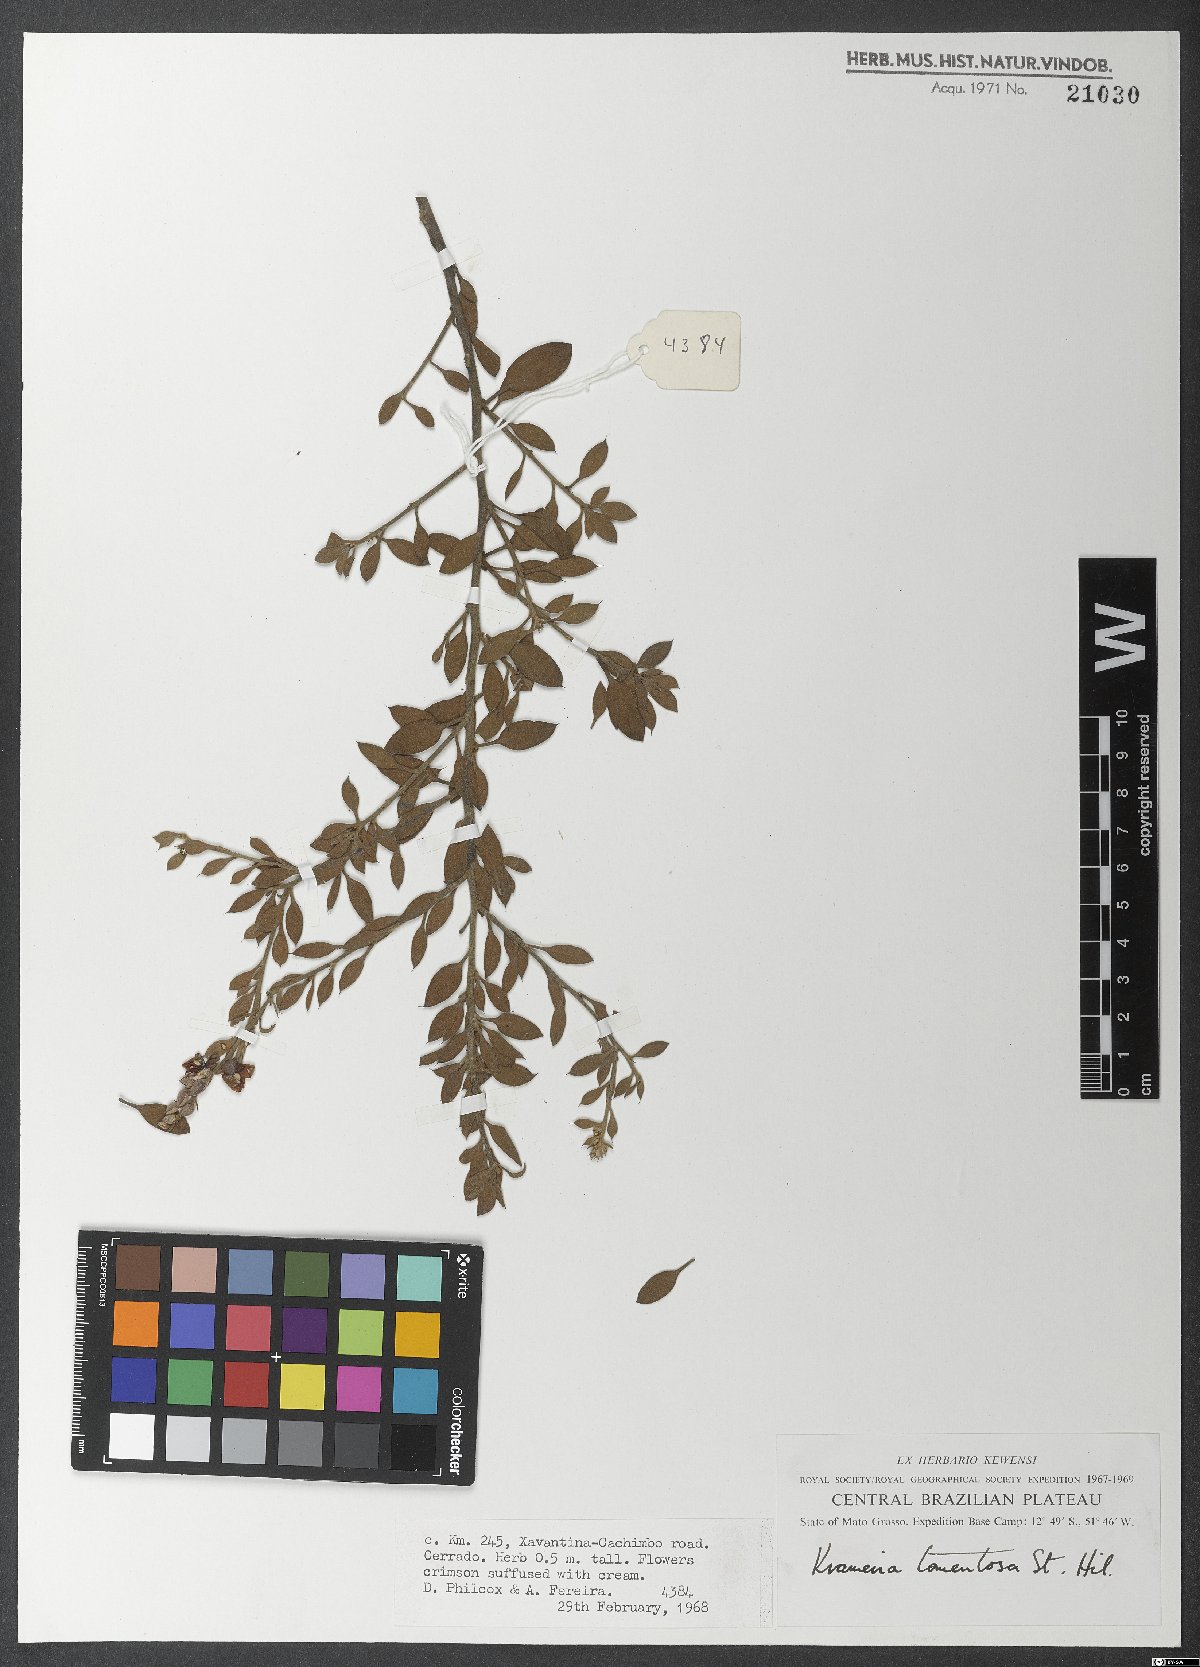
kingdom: Plantae
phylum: Tracheophyta
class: Magnoliopsida
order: Zygophyllales
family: Krameriaceae
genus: Krameria
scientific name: Krameria tomentosa
